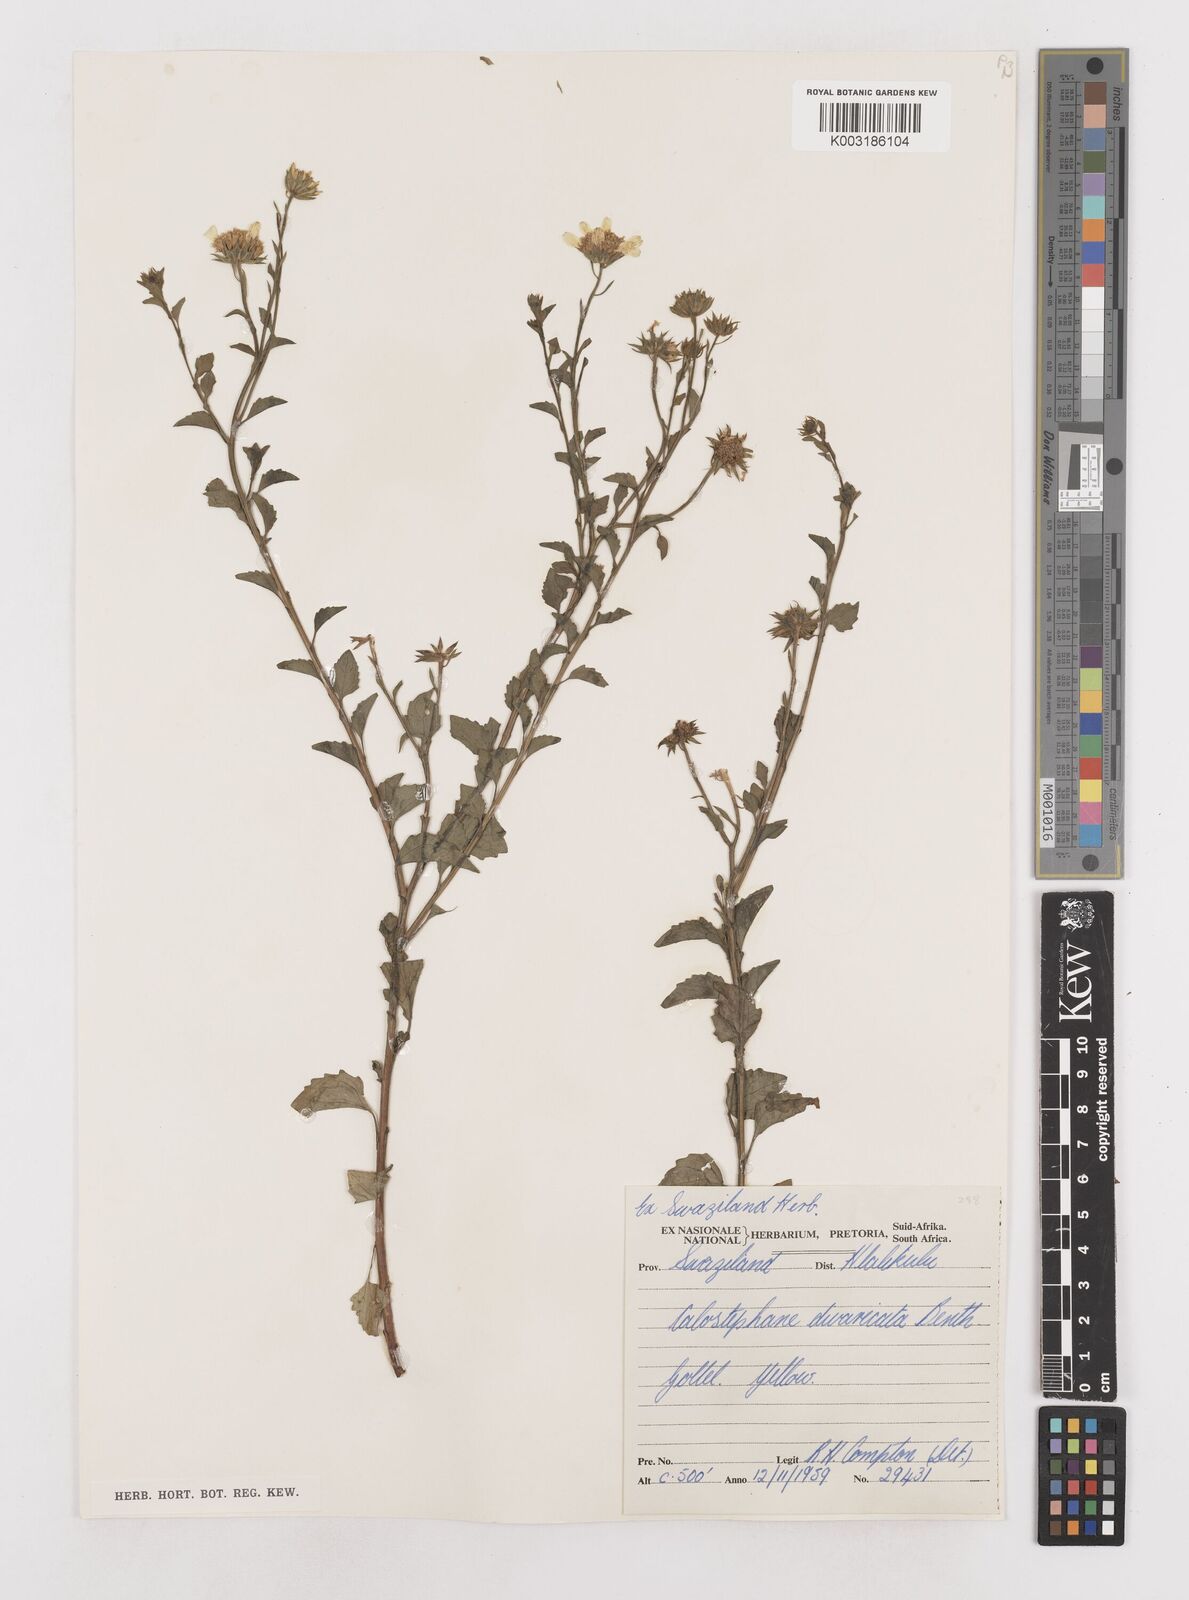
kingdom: Plantae
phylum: Tracheophyta
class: Magnoliopsida
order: Asterales
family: Asteraceae
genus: Calostephane
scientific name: Calostephane divaricata
